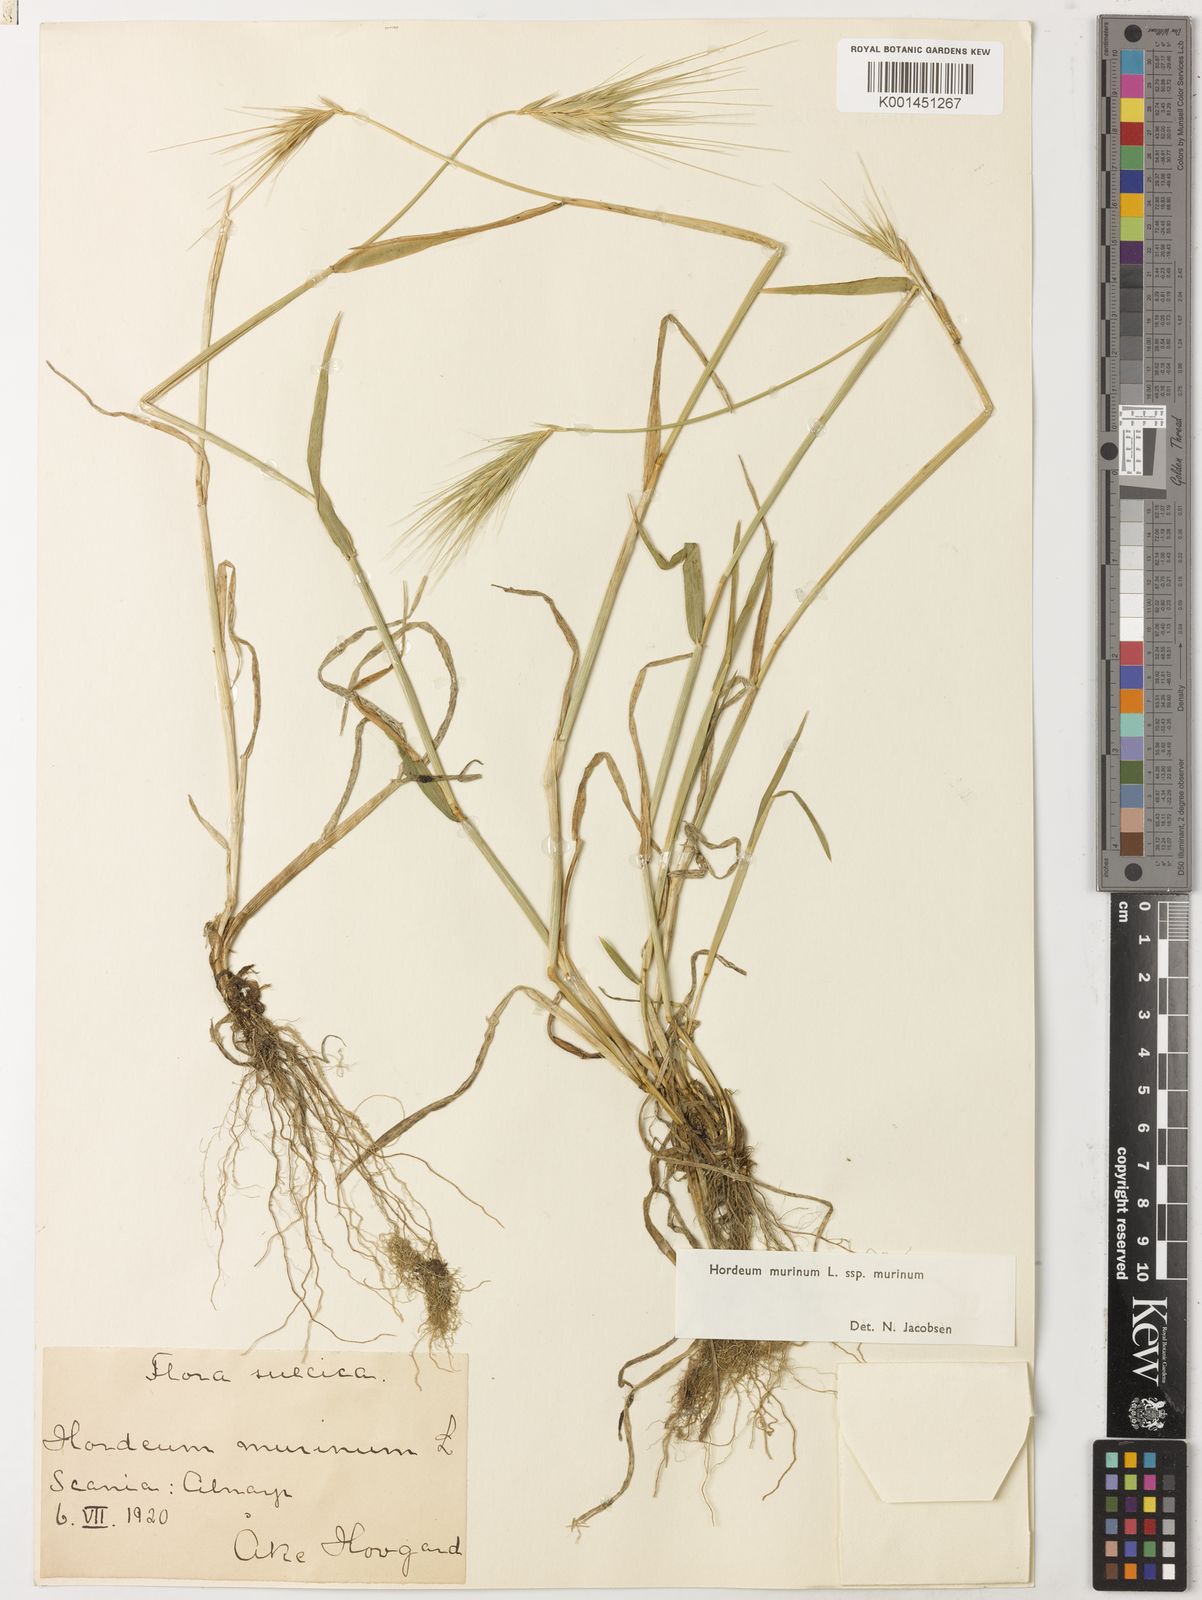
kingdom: Plantae
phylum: Tracheophyta
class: Liliopsida
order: Poales
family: Poaceae
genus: Hordeum
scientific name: Hordeum murinum
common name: Wall barley
